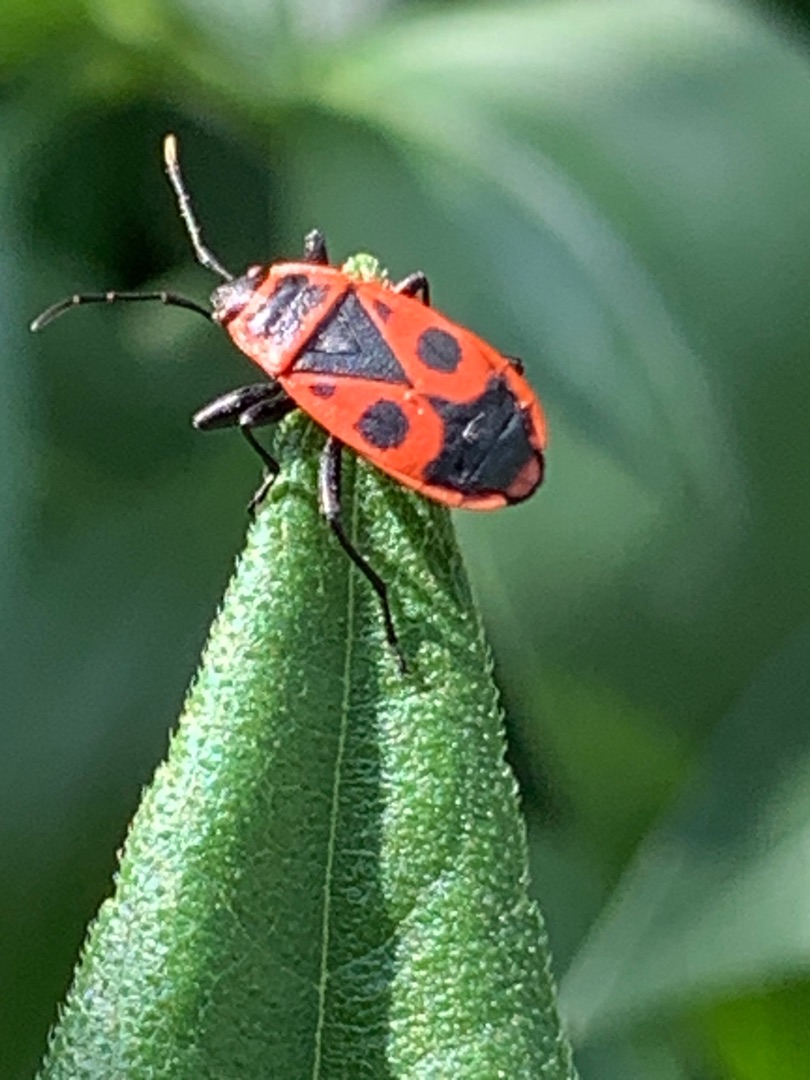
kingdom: Animalia
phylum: Arthropoda
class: Insecta
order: Hemiptera
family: Pyrrhocoridae
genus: Pyrrhocoris
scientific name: Pyrrhocoris apterus
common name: Ildtæge
